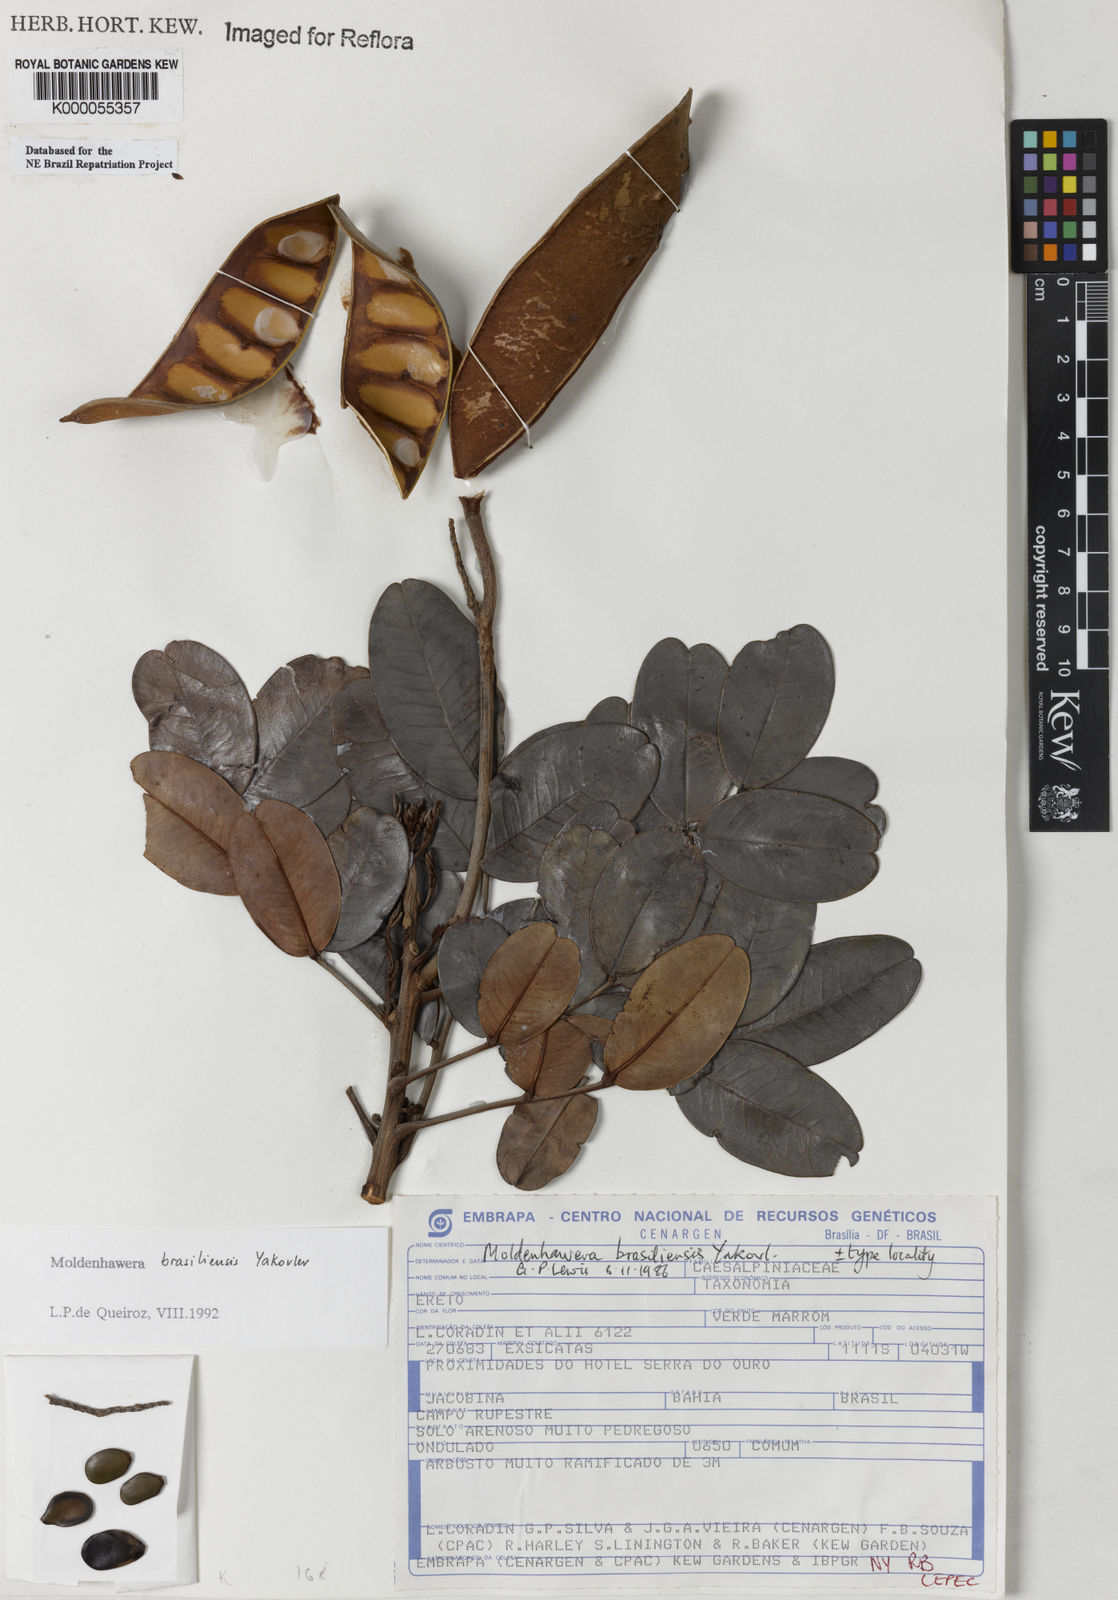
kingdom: Plantae
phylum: Tracheophyta
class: Magnoliopsida
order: Fabales
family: Fabaceae
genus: Moldenhawera
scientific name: Moldenhawera brasiliensis
